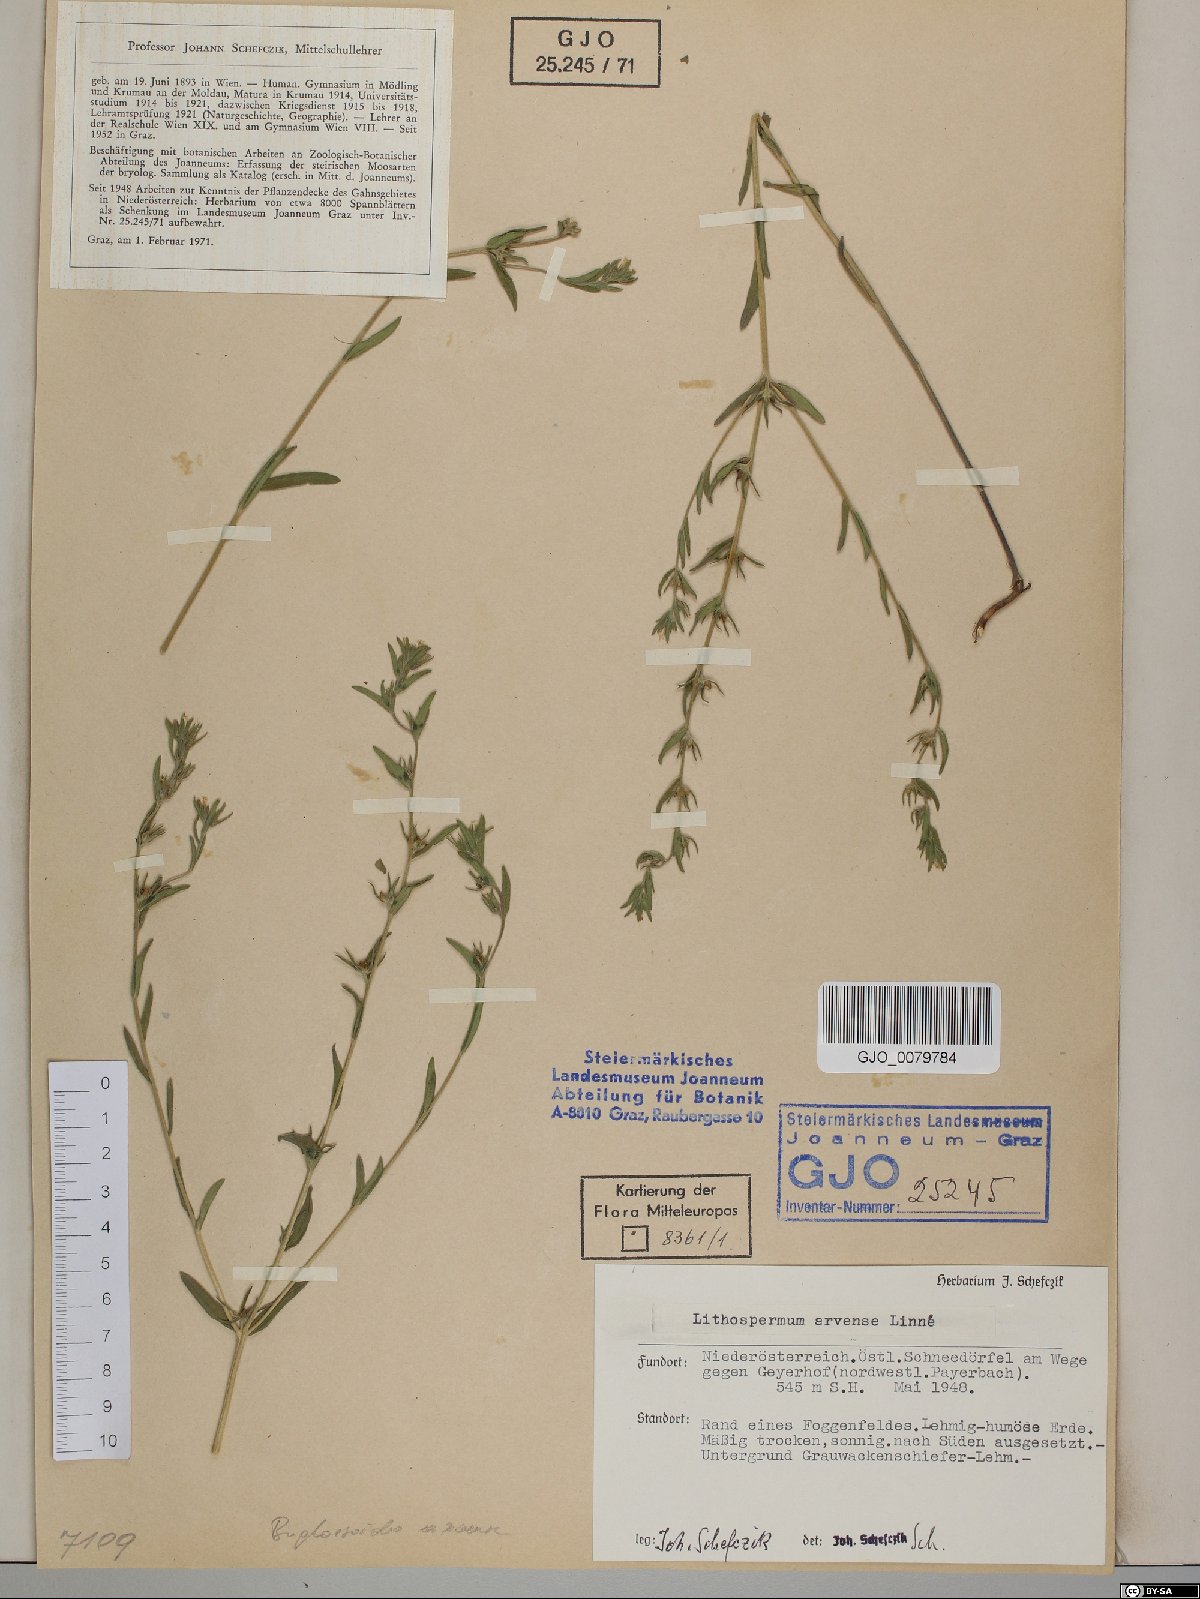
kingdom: Plantae
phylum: Tracheophyta
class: Magnoliopsida
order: Boraginales
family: Boraginaceae
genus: Buglossoides
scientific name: Buglossoides arvensis
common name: Corn gromwell
